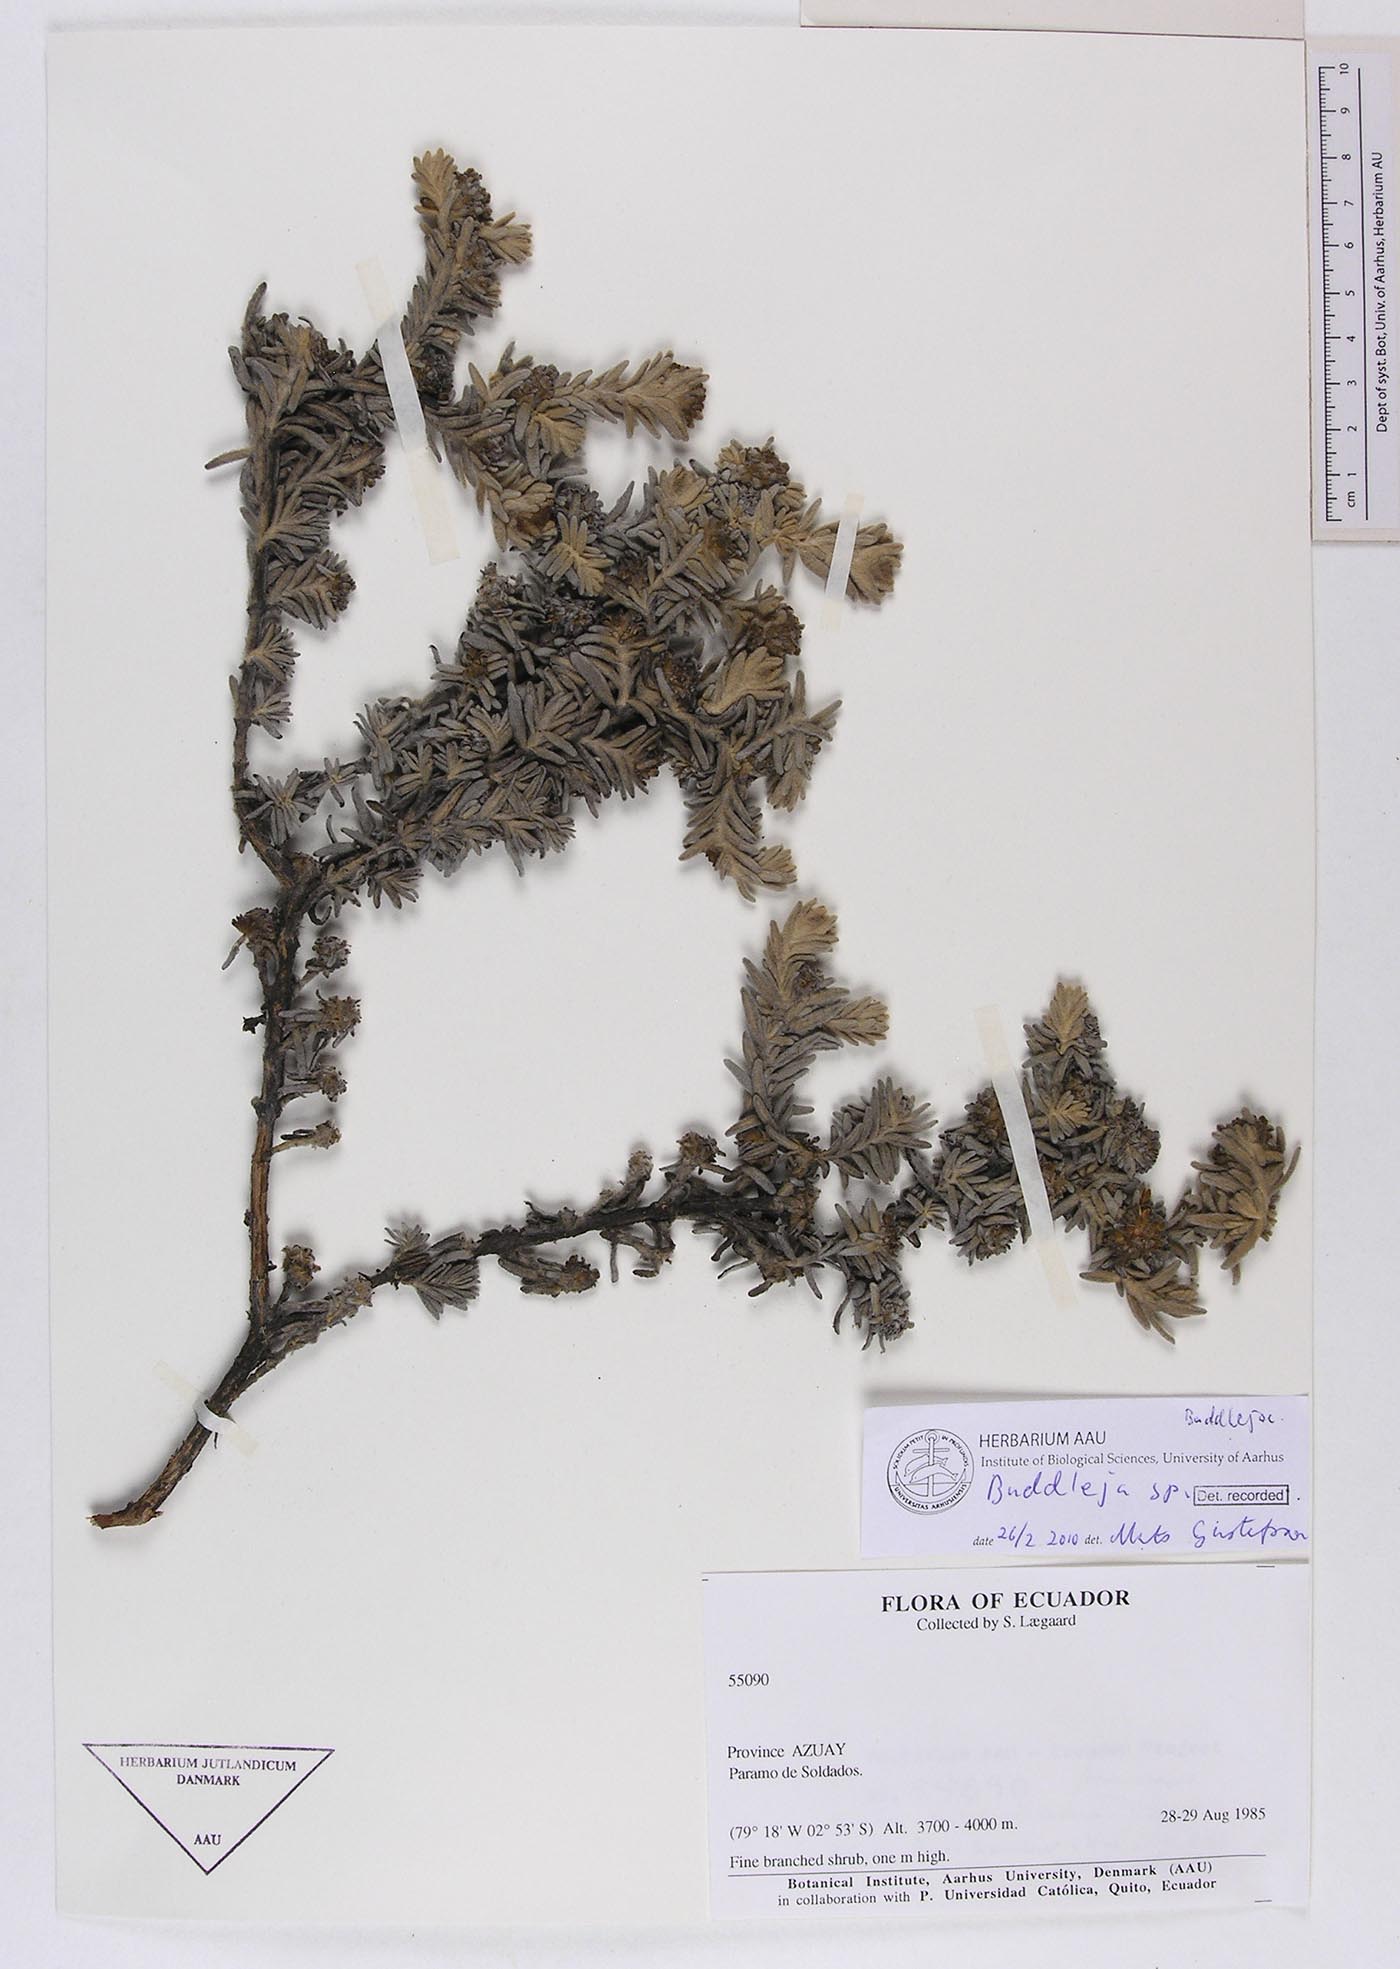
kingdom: Plantae
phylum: Tracheophyta
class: Magnoliopsida
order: Lamiales
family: Scrophulariaceae
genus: Buddleja
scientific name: Buddleja
